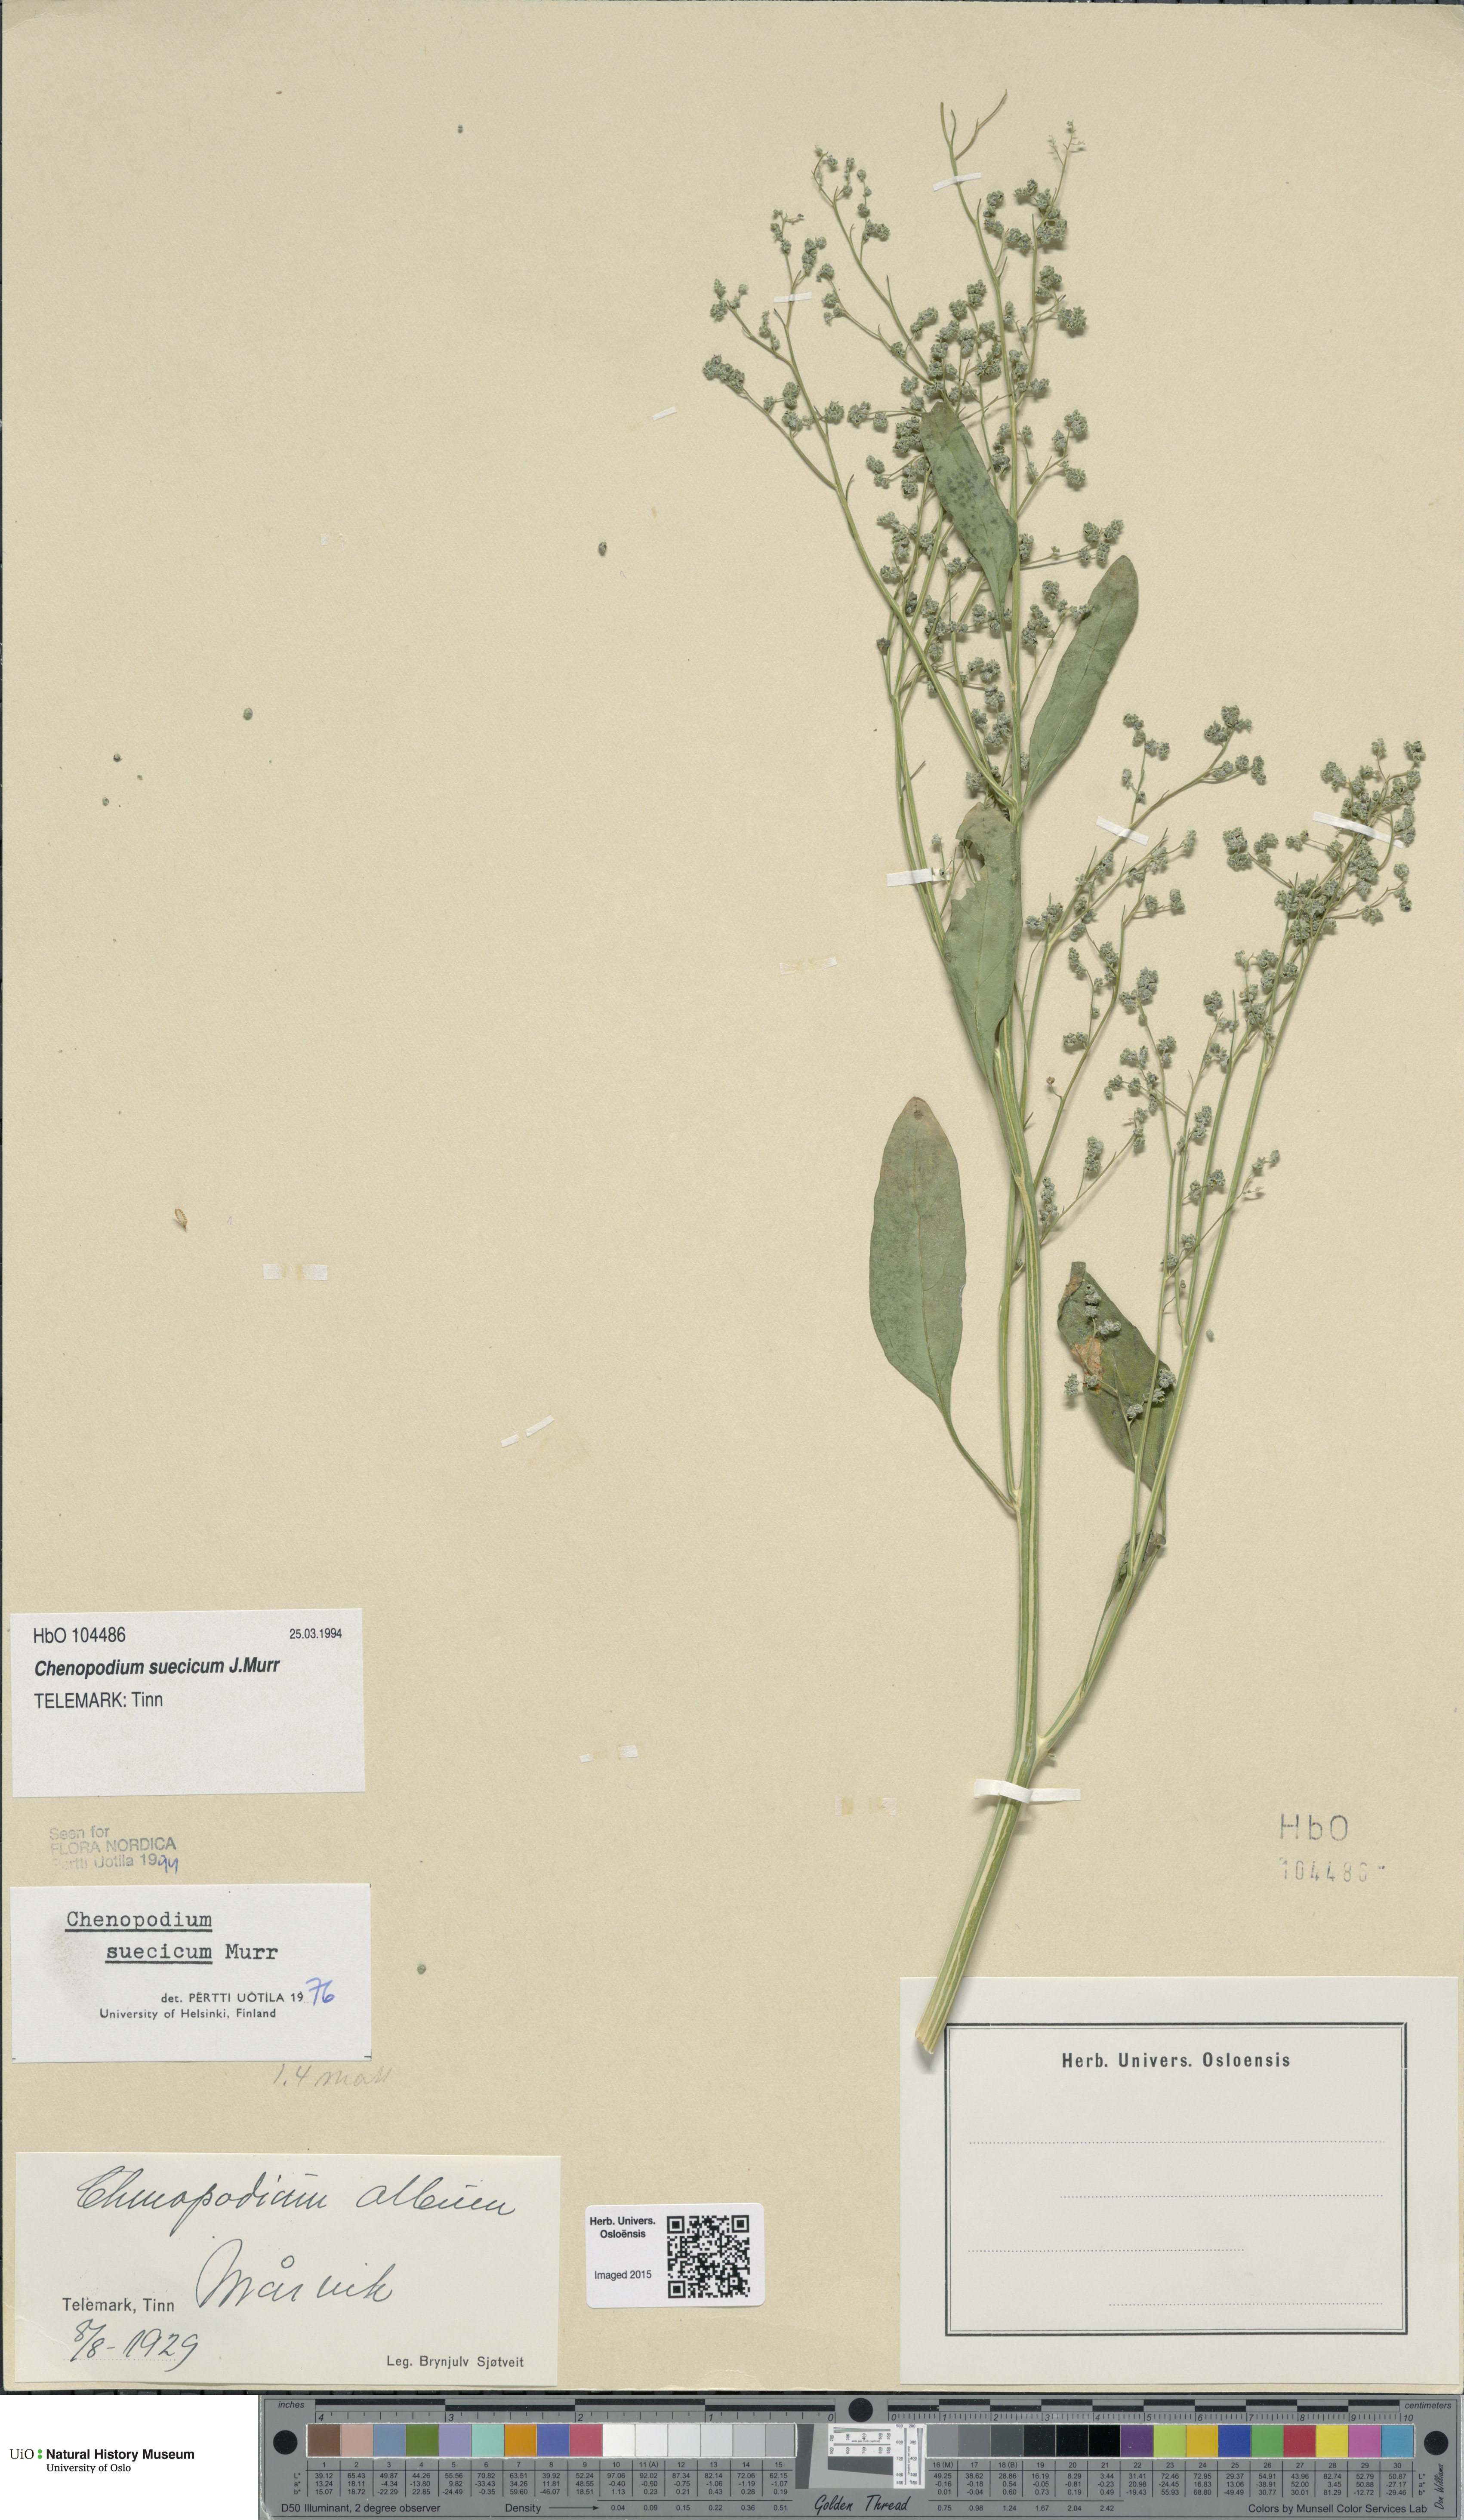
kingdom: Plantae
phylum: Tracheophyta
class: Magnoliopsida
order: Caryophyllales
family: Amaranthaceae
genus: Chenopodium
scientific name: Chenopodium suecicum
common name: Swedish goosefoot
